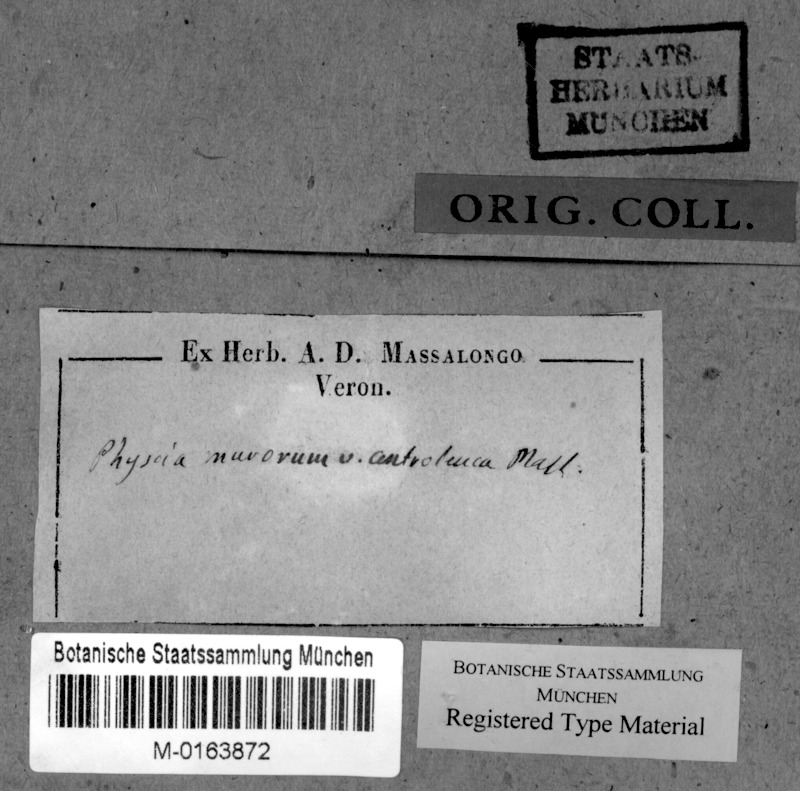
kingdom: Fungi
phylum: Ascomycota
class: Lecanoromycetes
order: Teloschistales
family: Teloschistaceae
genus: Variospora
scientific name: Variospora flavescens
